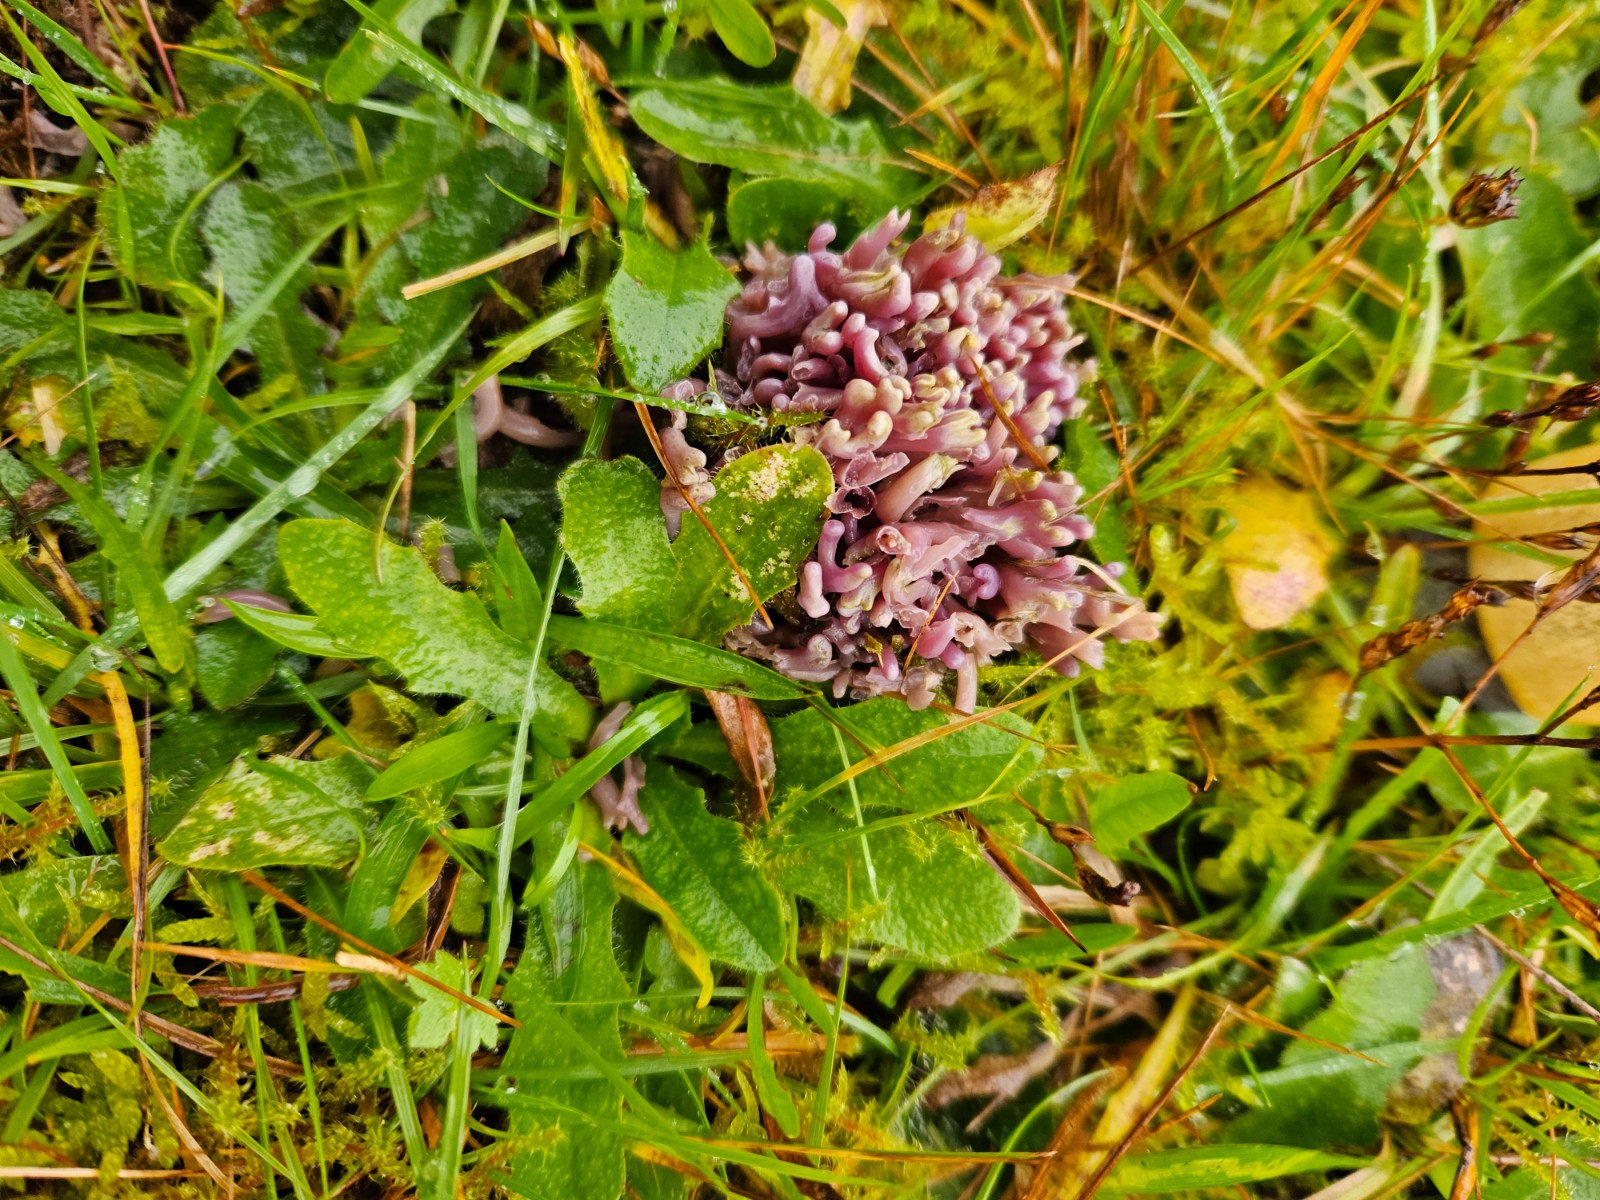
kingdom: Fungi
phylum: Basidiomycota
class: Agaricomycetes
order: Agaricales
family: Clavariaceae
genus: Clavaria
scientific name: Clavaria zollingeri
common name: purpur-køllesvamp
